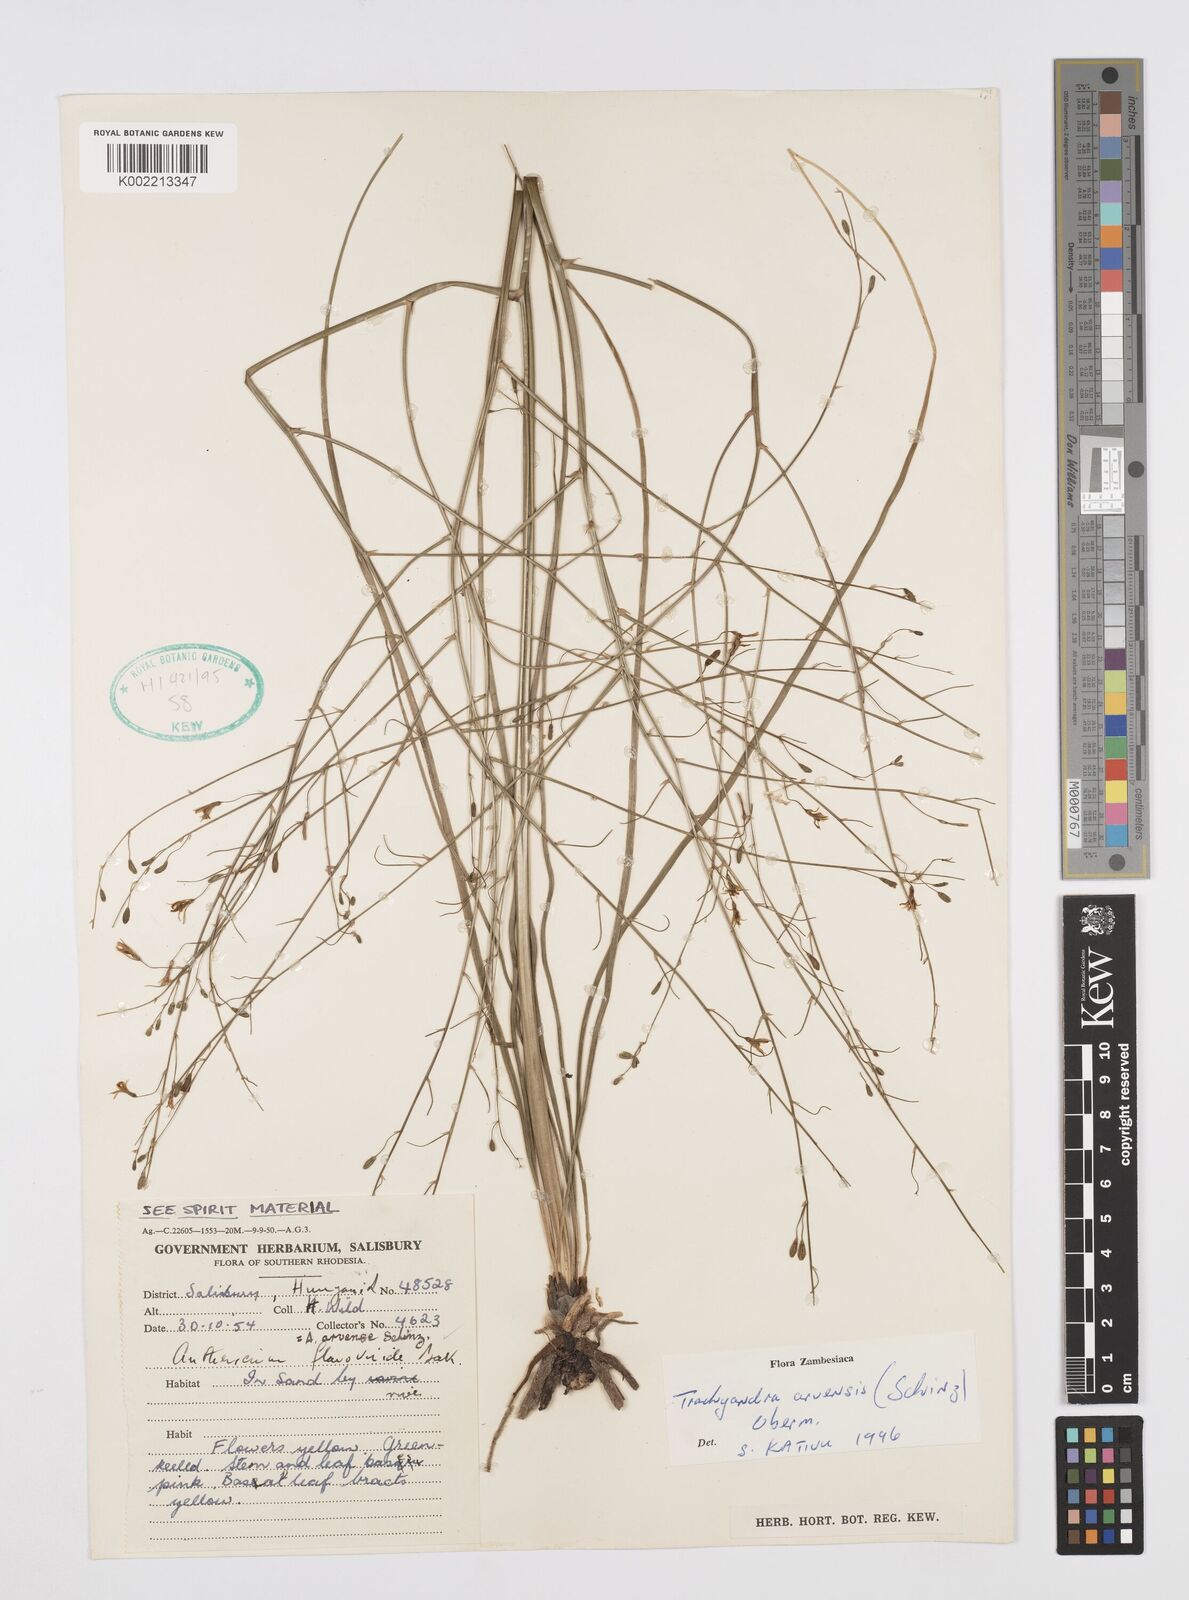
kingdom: Plantae
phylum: Tracheophyta
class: Liliopsida
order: Asparagales
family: Asphodelaceae
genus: Trachyandra
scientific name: Trachyandra arvensis
